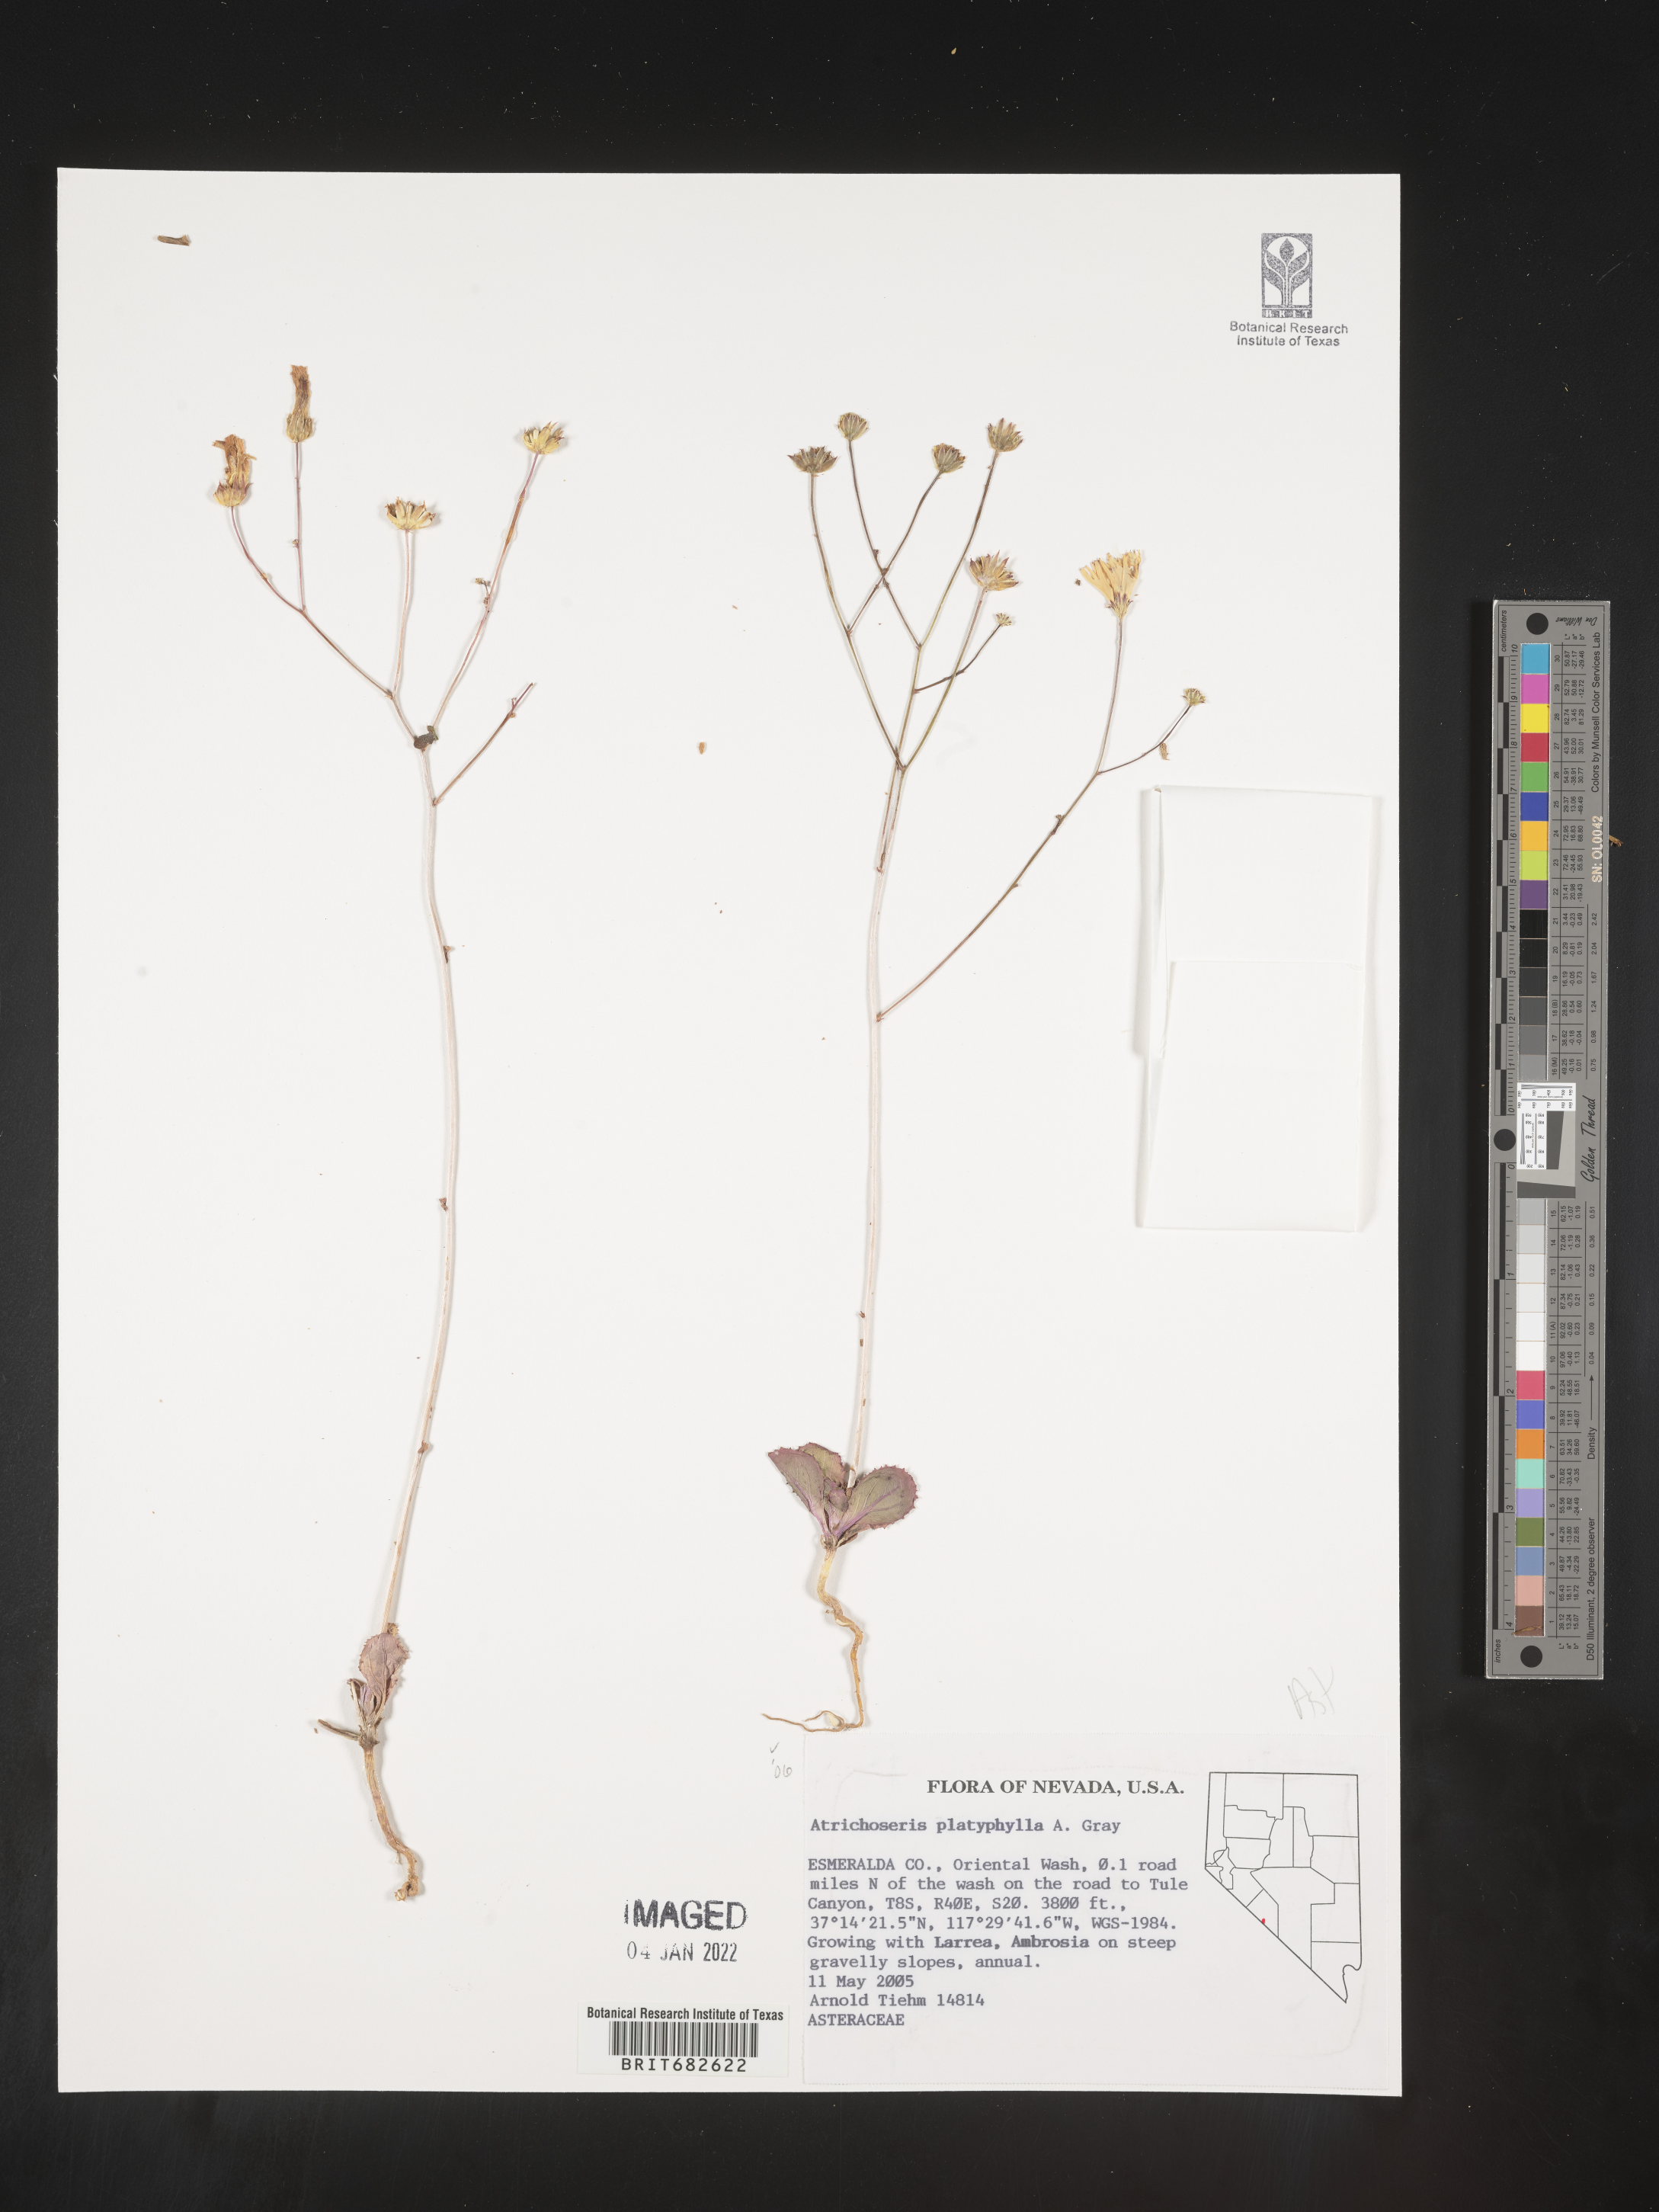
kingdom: Plantae
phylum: Tracheophyta
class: Magnoliopsida
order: Asterales
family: Asteraceae
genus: Atrichoseris
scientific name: Atrichoseris
